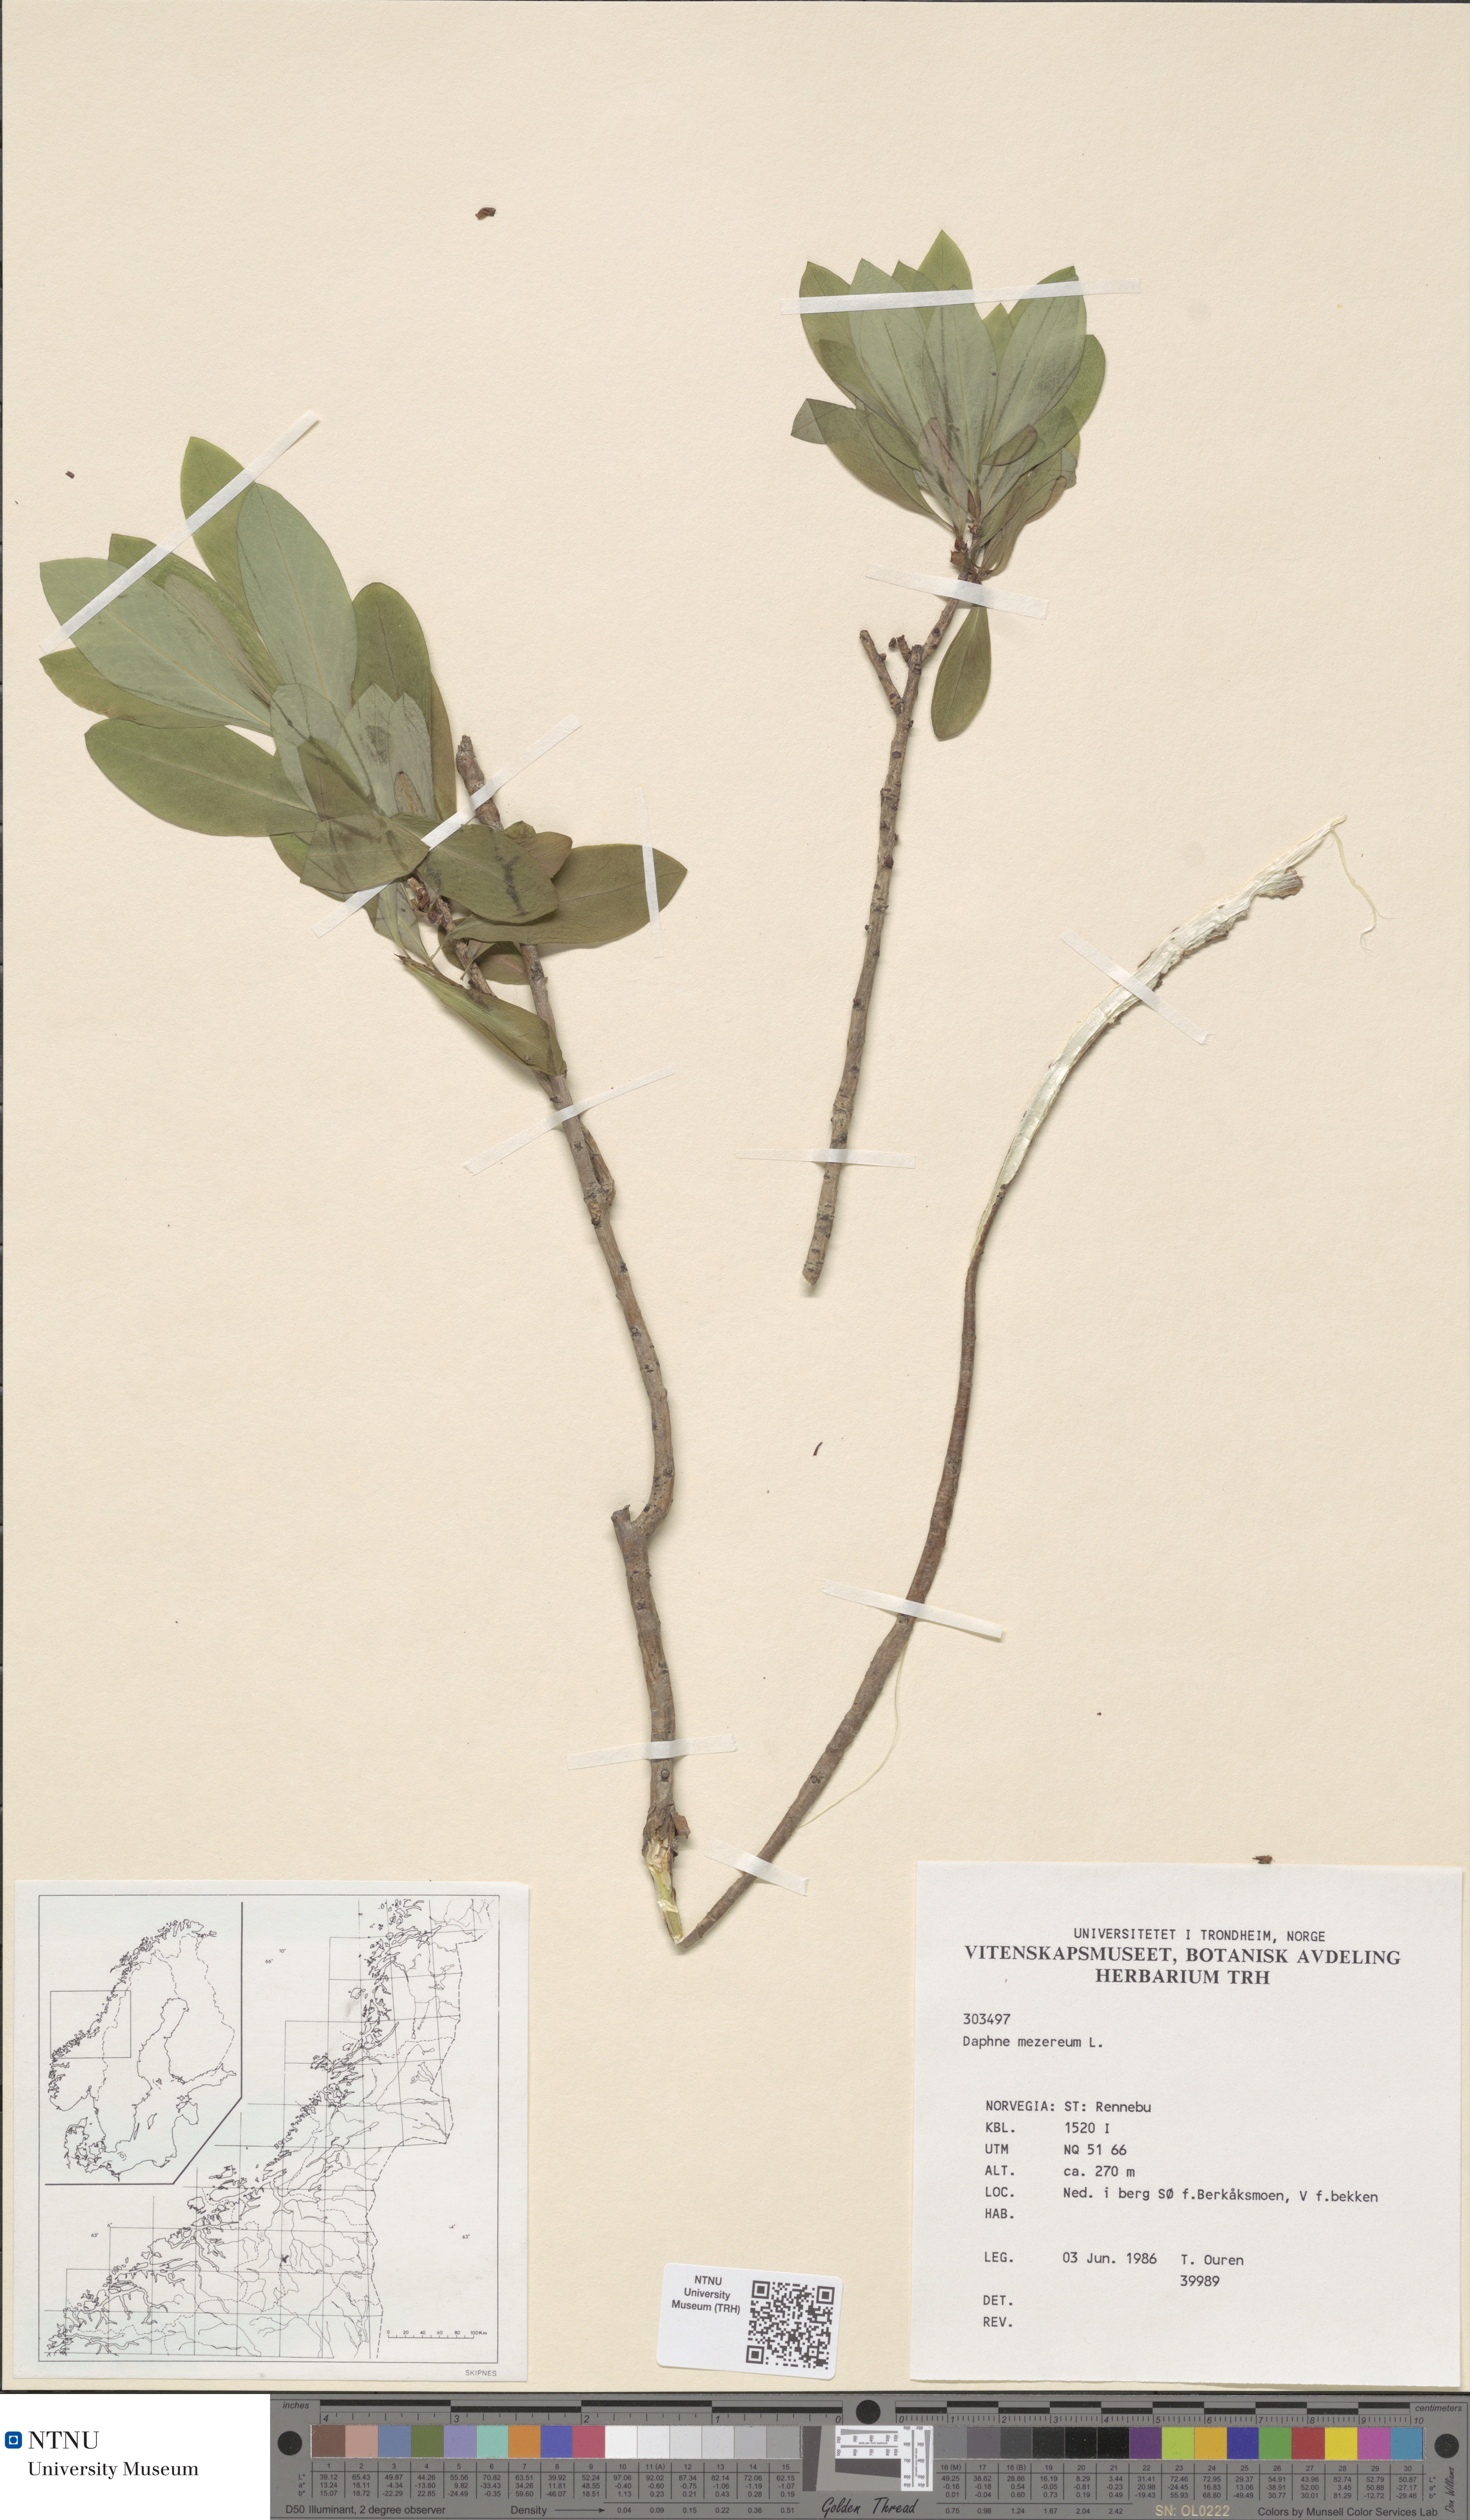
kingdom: Plantae
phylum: Tracheophyta
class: Magnoliopsida
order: Malvales
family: Thymelaeaceae
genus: Daphne
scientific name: Daphne mezereum
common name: Mezereon
